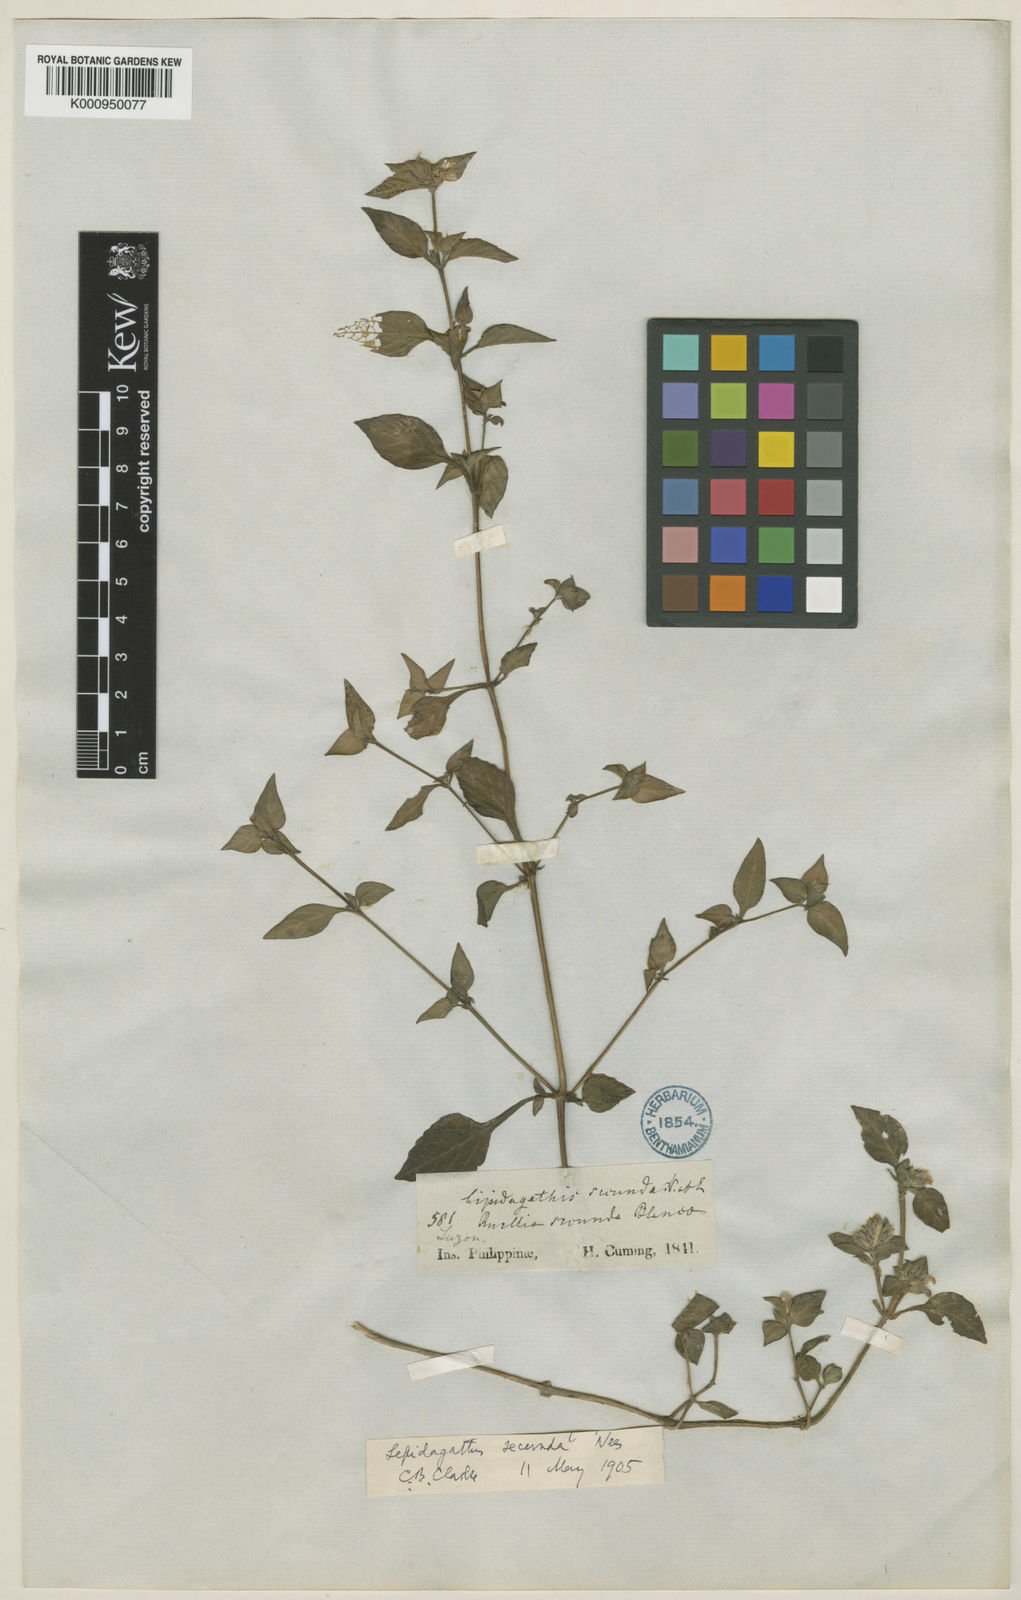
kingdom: Plantae
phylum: Tracheophyta
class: Magnoliopsida
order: Lamiales
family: Acanthaceae
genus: Lepidagathis
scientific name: Lepidagathis secunda
